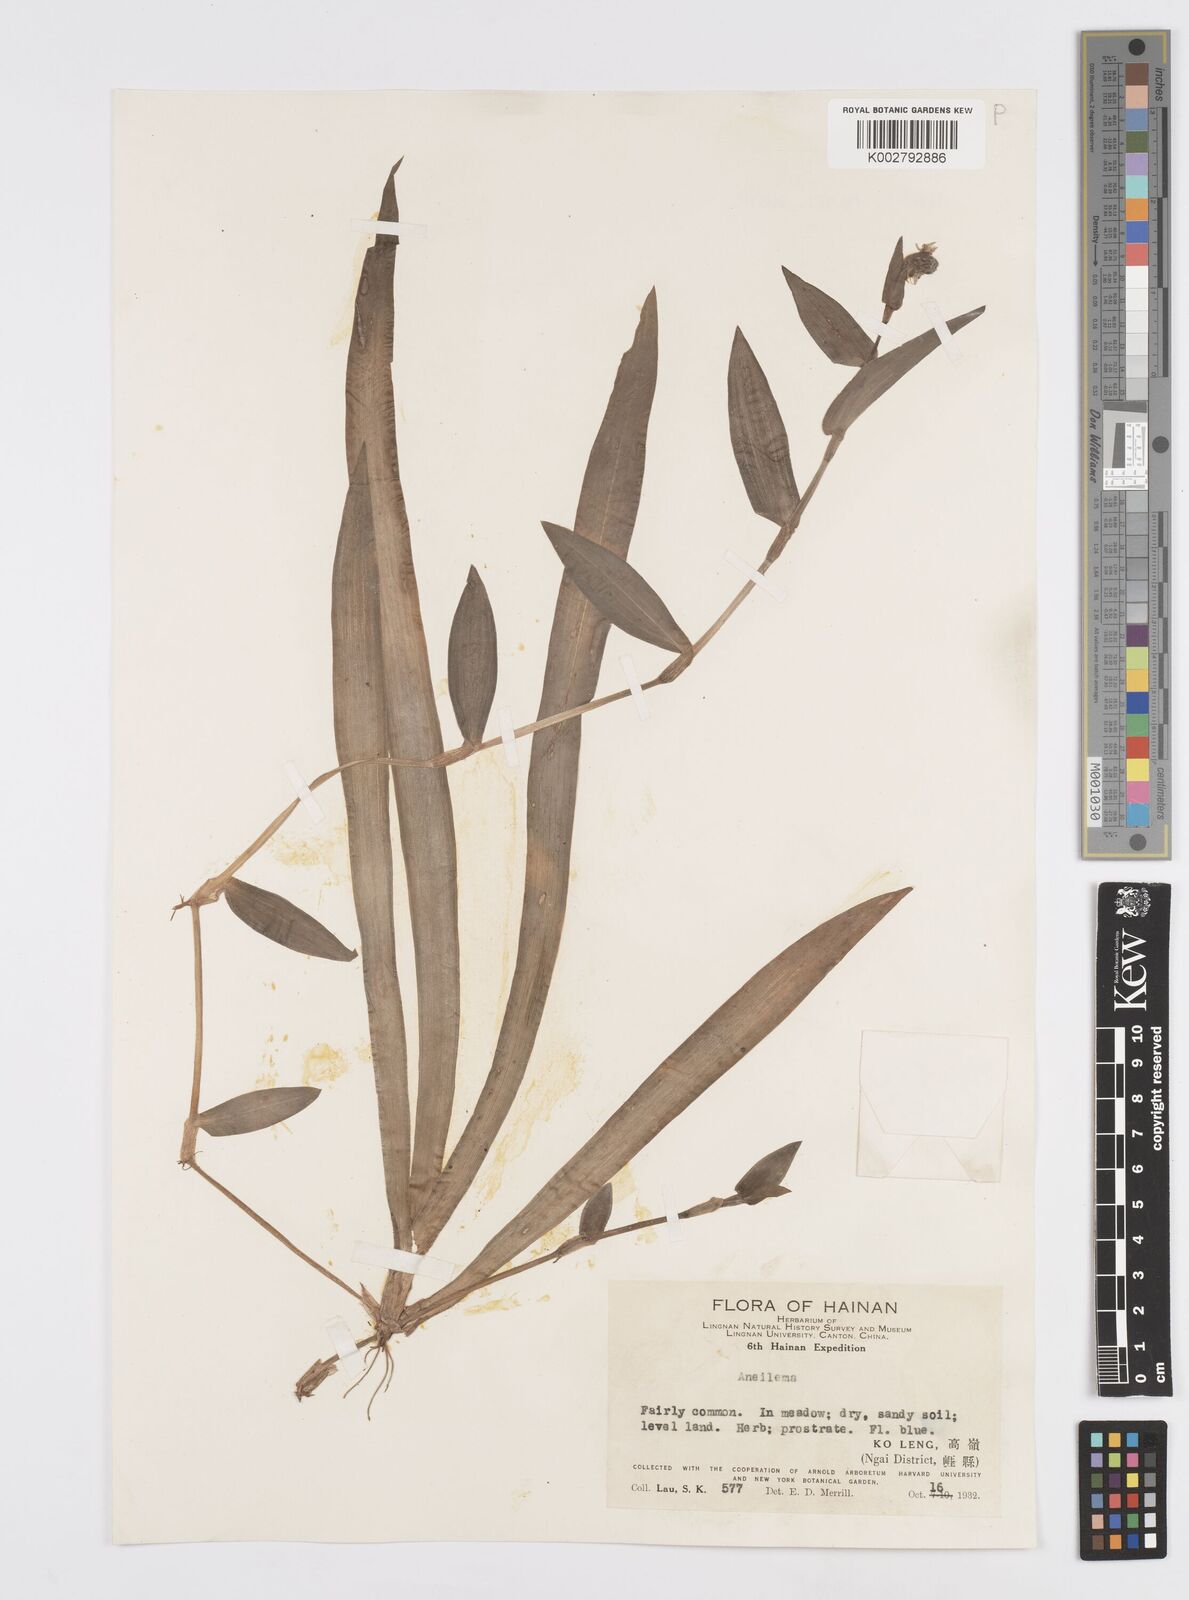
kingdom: Plantae
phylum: Tracheophyta
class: Liliopsida
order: Commelinales
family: Commelinaceae
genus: Murdannia
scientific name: Murdannia
